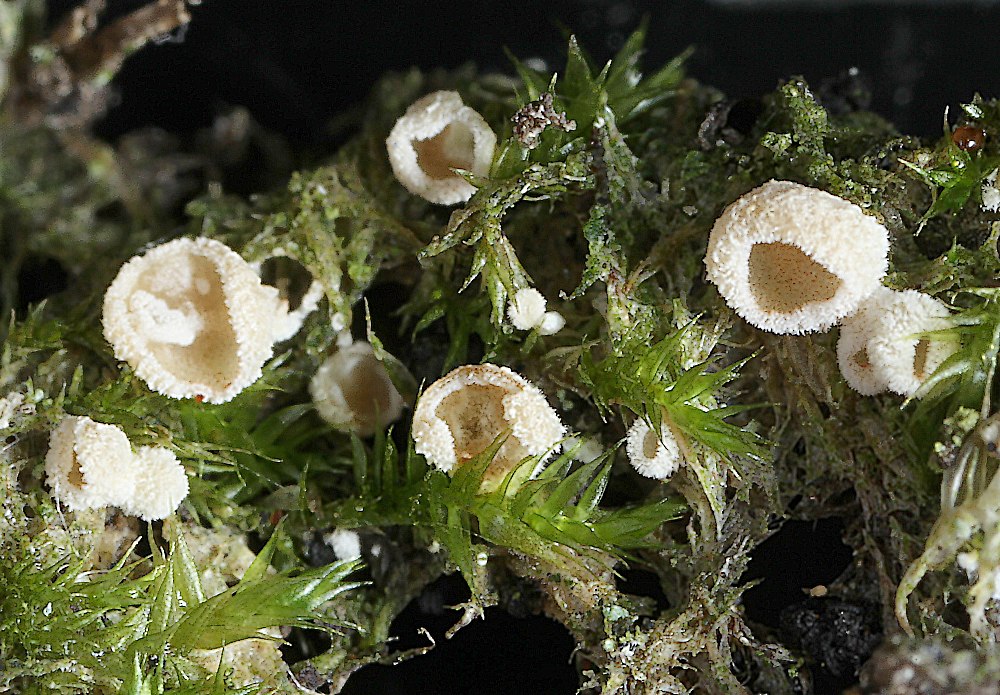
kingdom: Fungi
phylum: Basidiomycota
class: Agaricomycetes
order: Agaricales
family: Chromocyphellaceae
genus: Chromocyphella
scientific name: Chromocyphella muscicola
